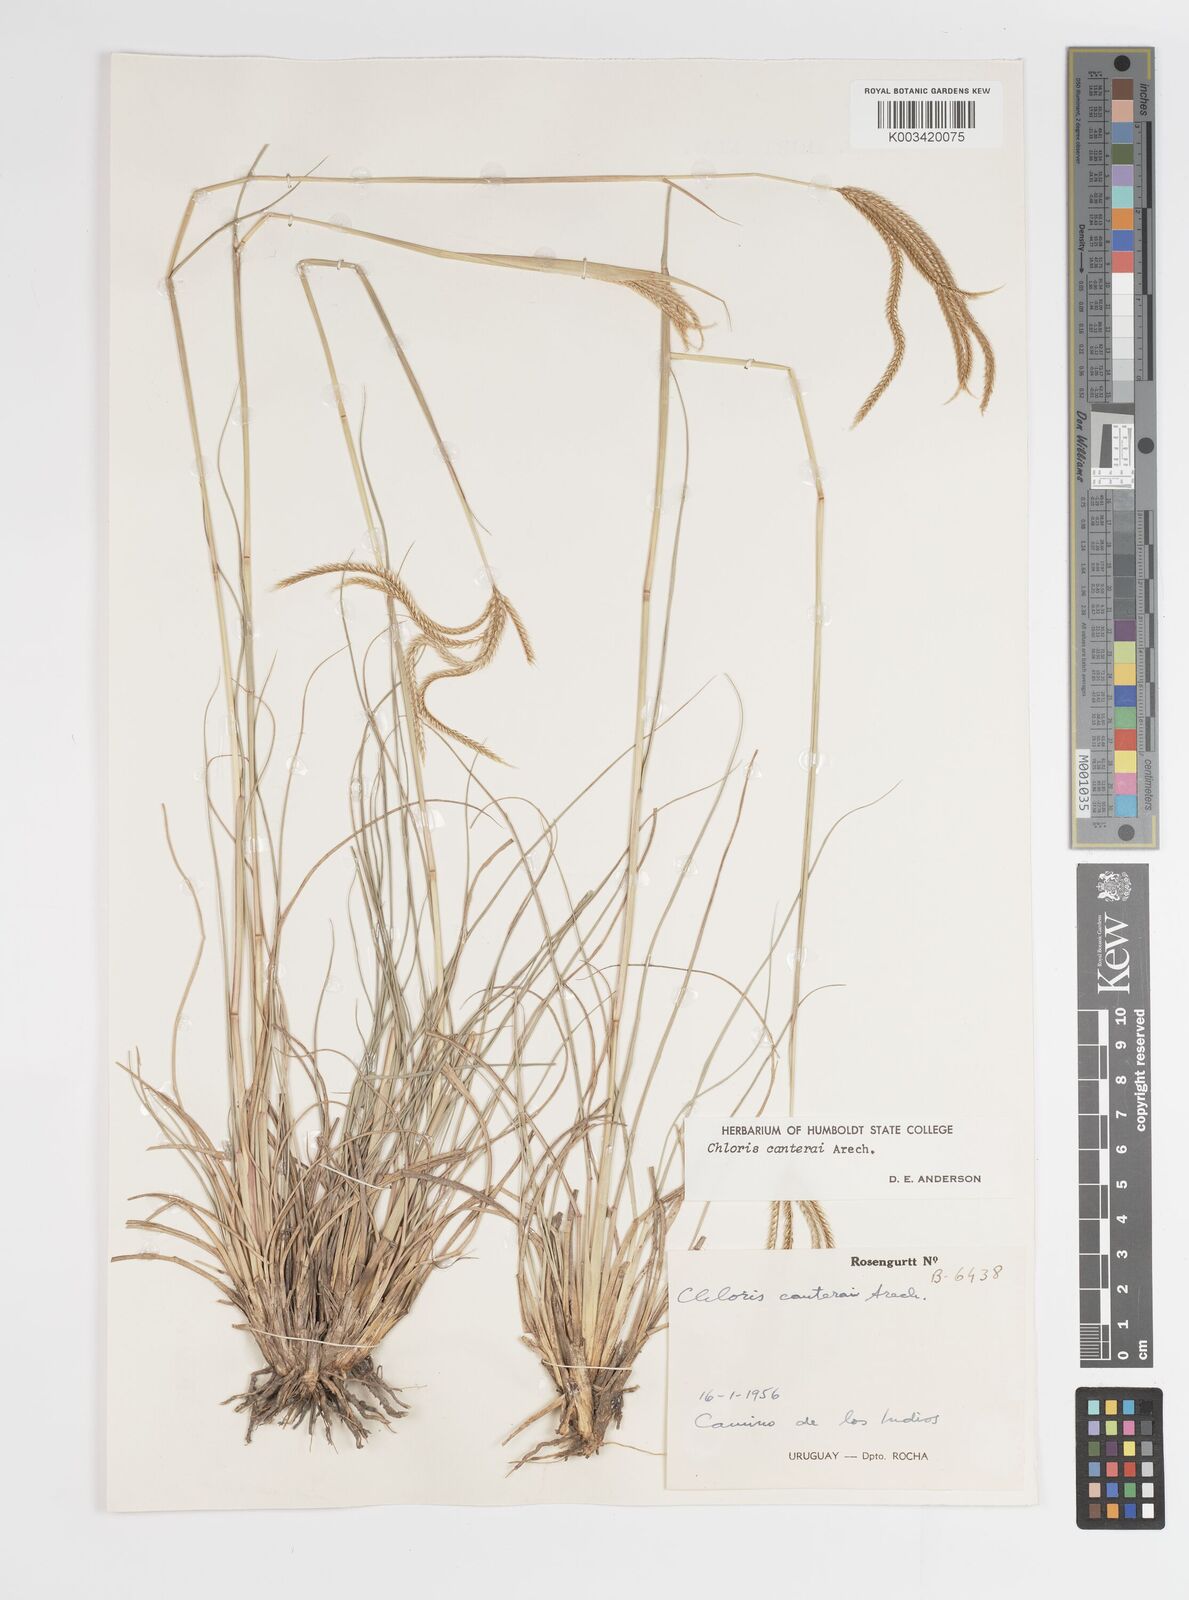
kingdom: Plantae
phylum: Tracheophyta
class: Liliopsida
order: Poales
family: Poaceae
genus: Stapfochloa
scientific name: Stapfochloa canterae
